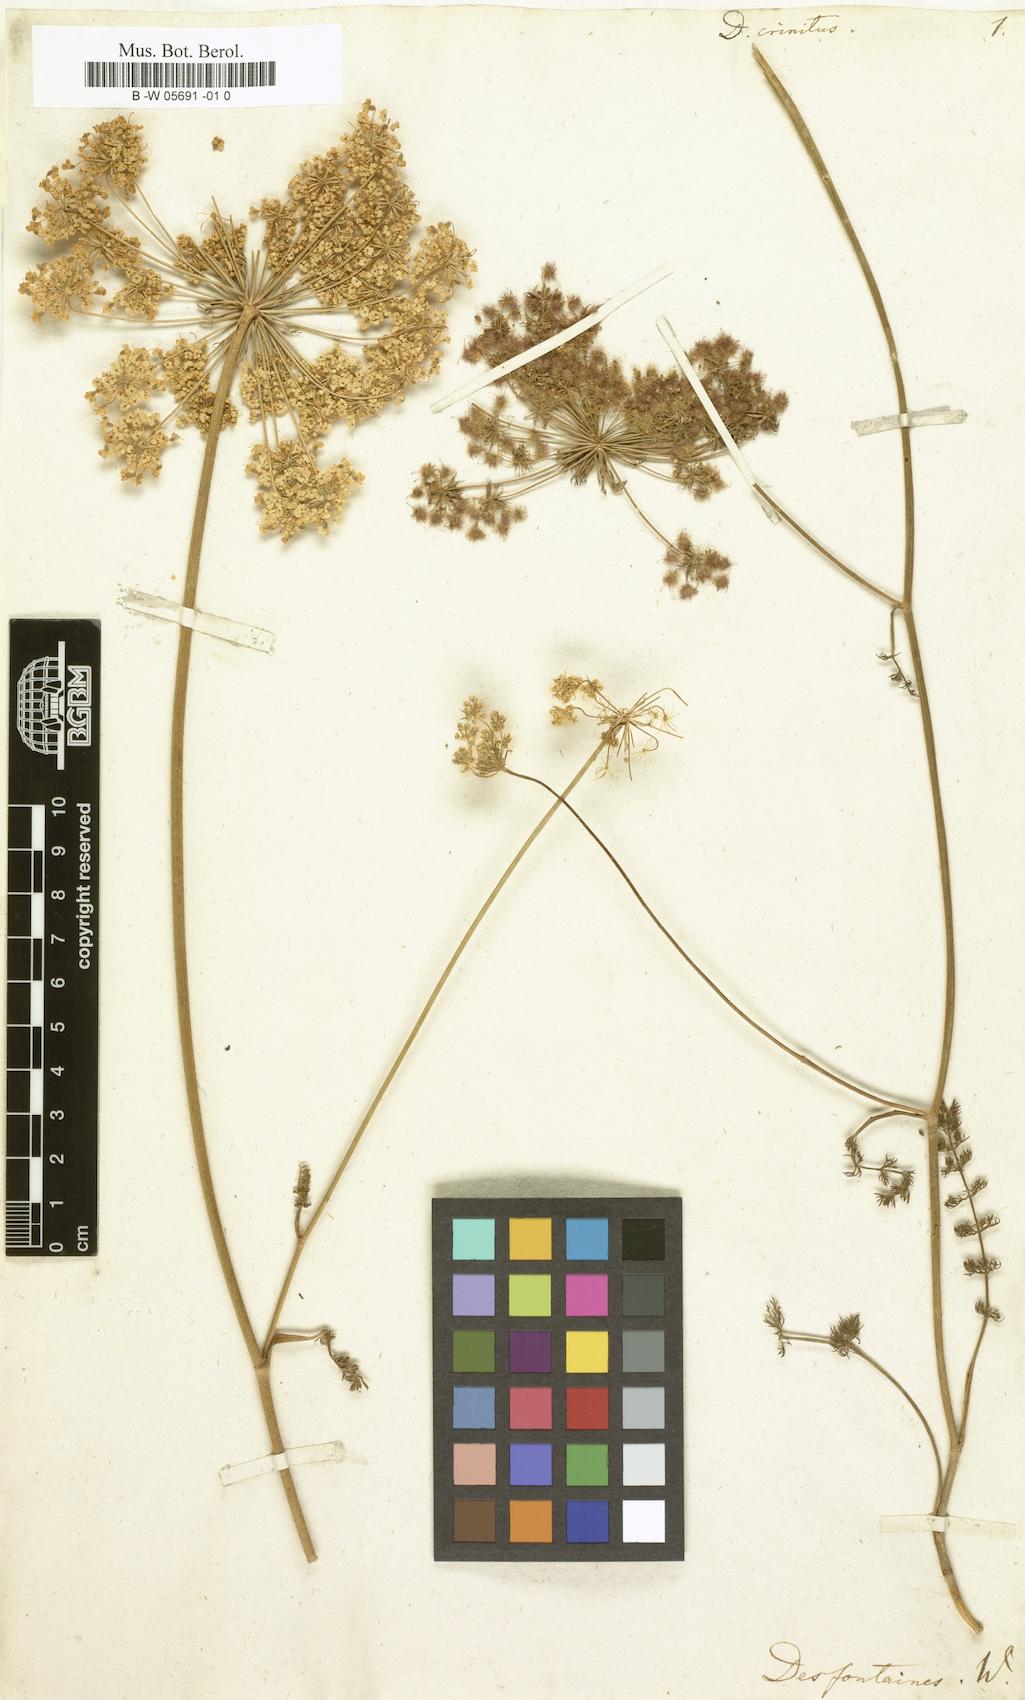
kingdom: Plantae
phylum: Tracheophyta
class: Magnoliopsida
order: Apiales
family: Apiaceae
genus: Daucus
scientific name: Daucus crinitus
